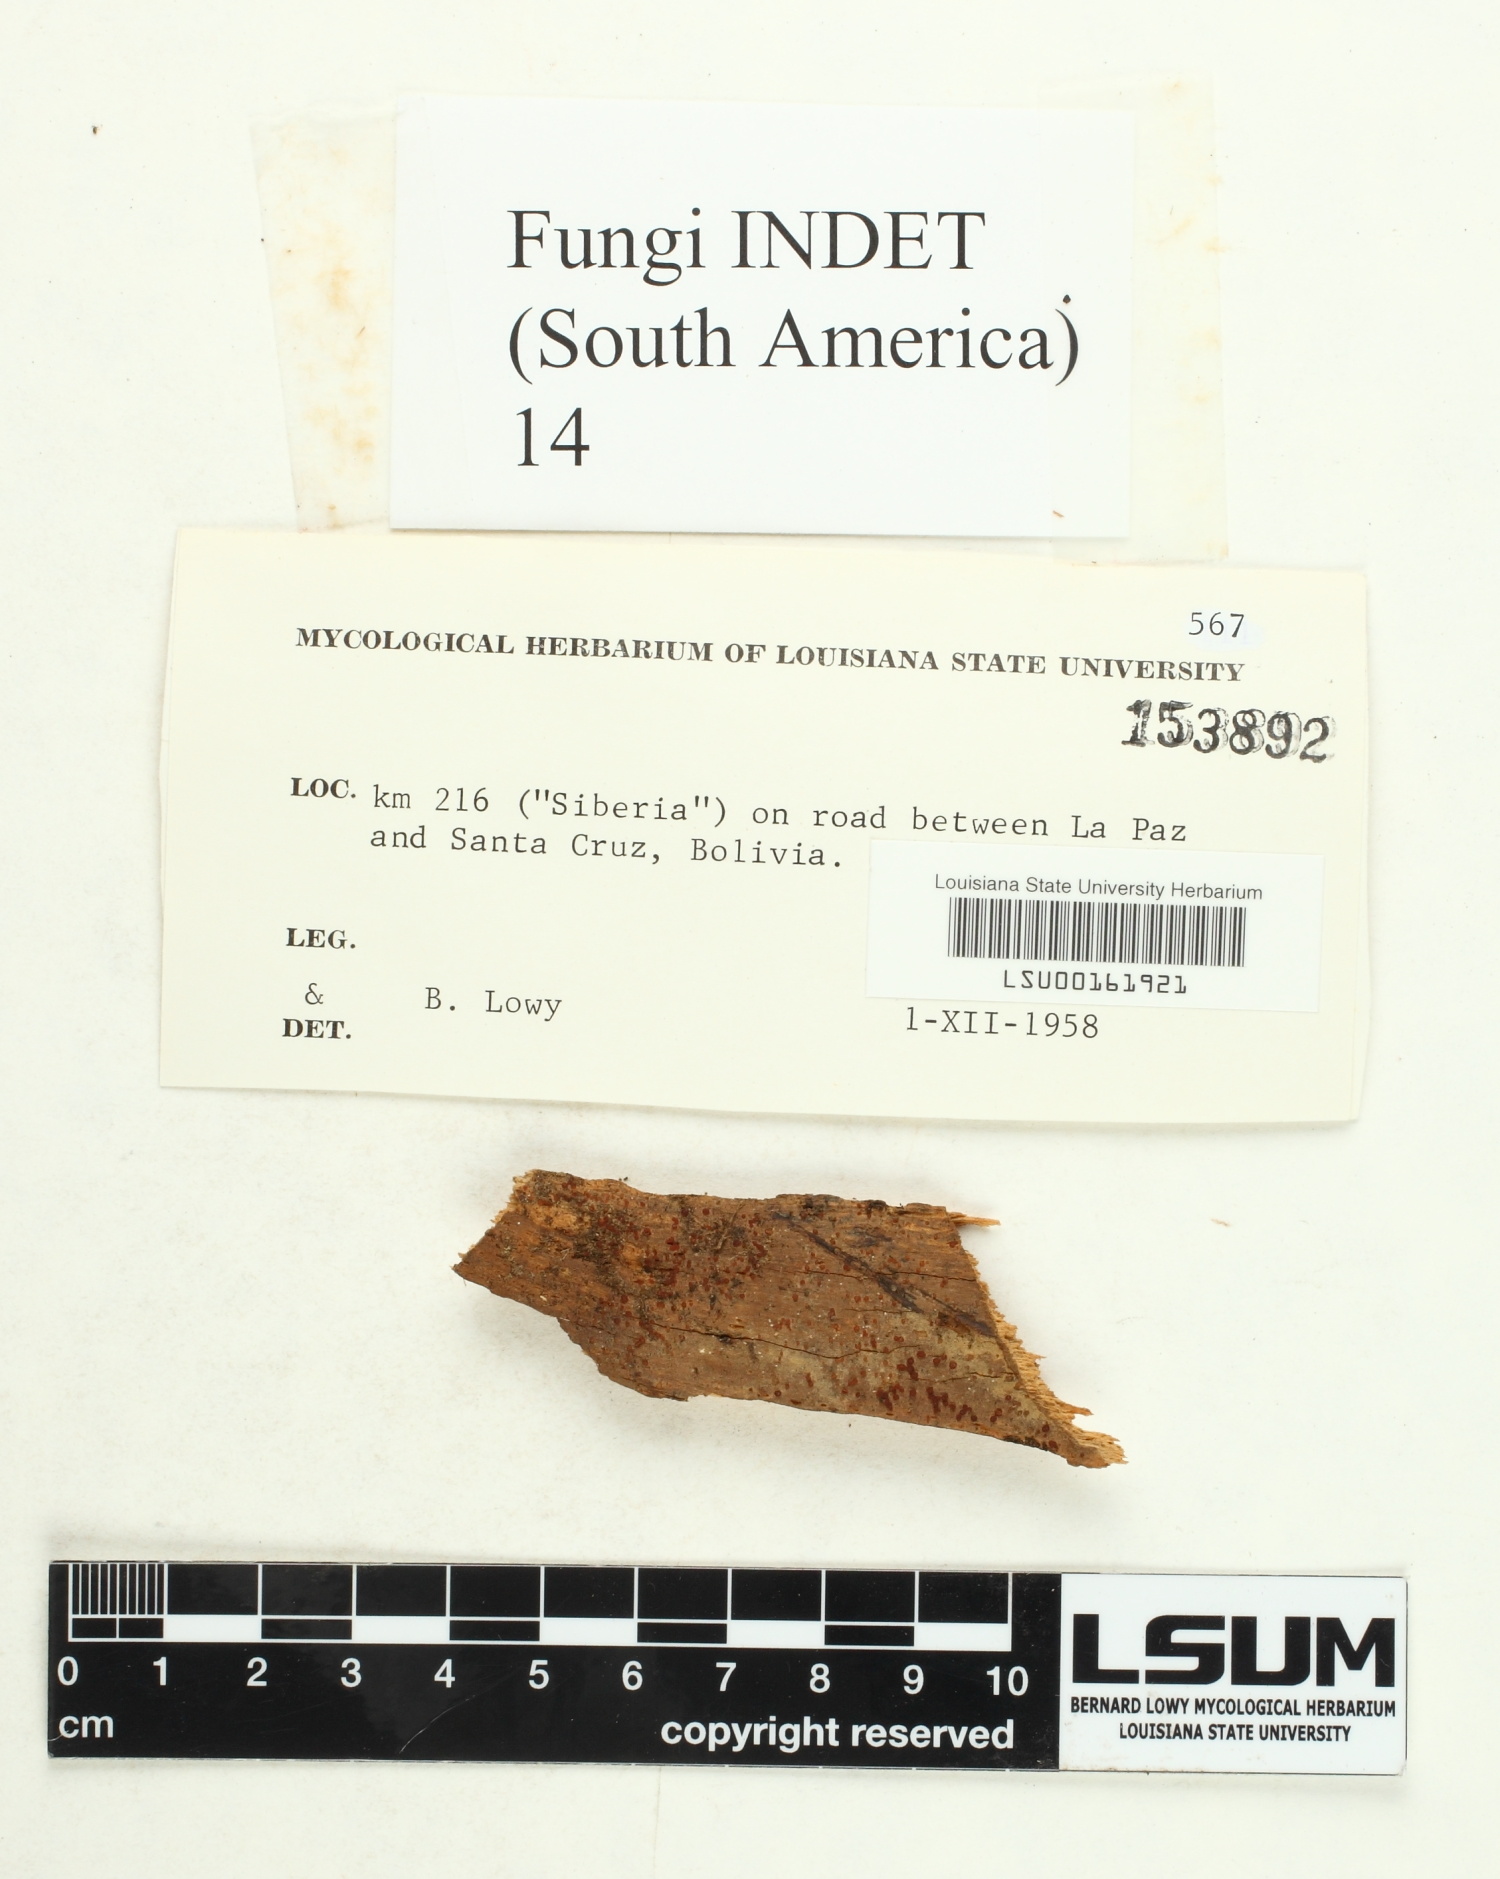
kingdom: Fungi
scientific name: Fungi
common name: Fungi
